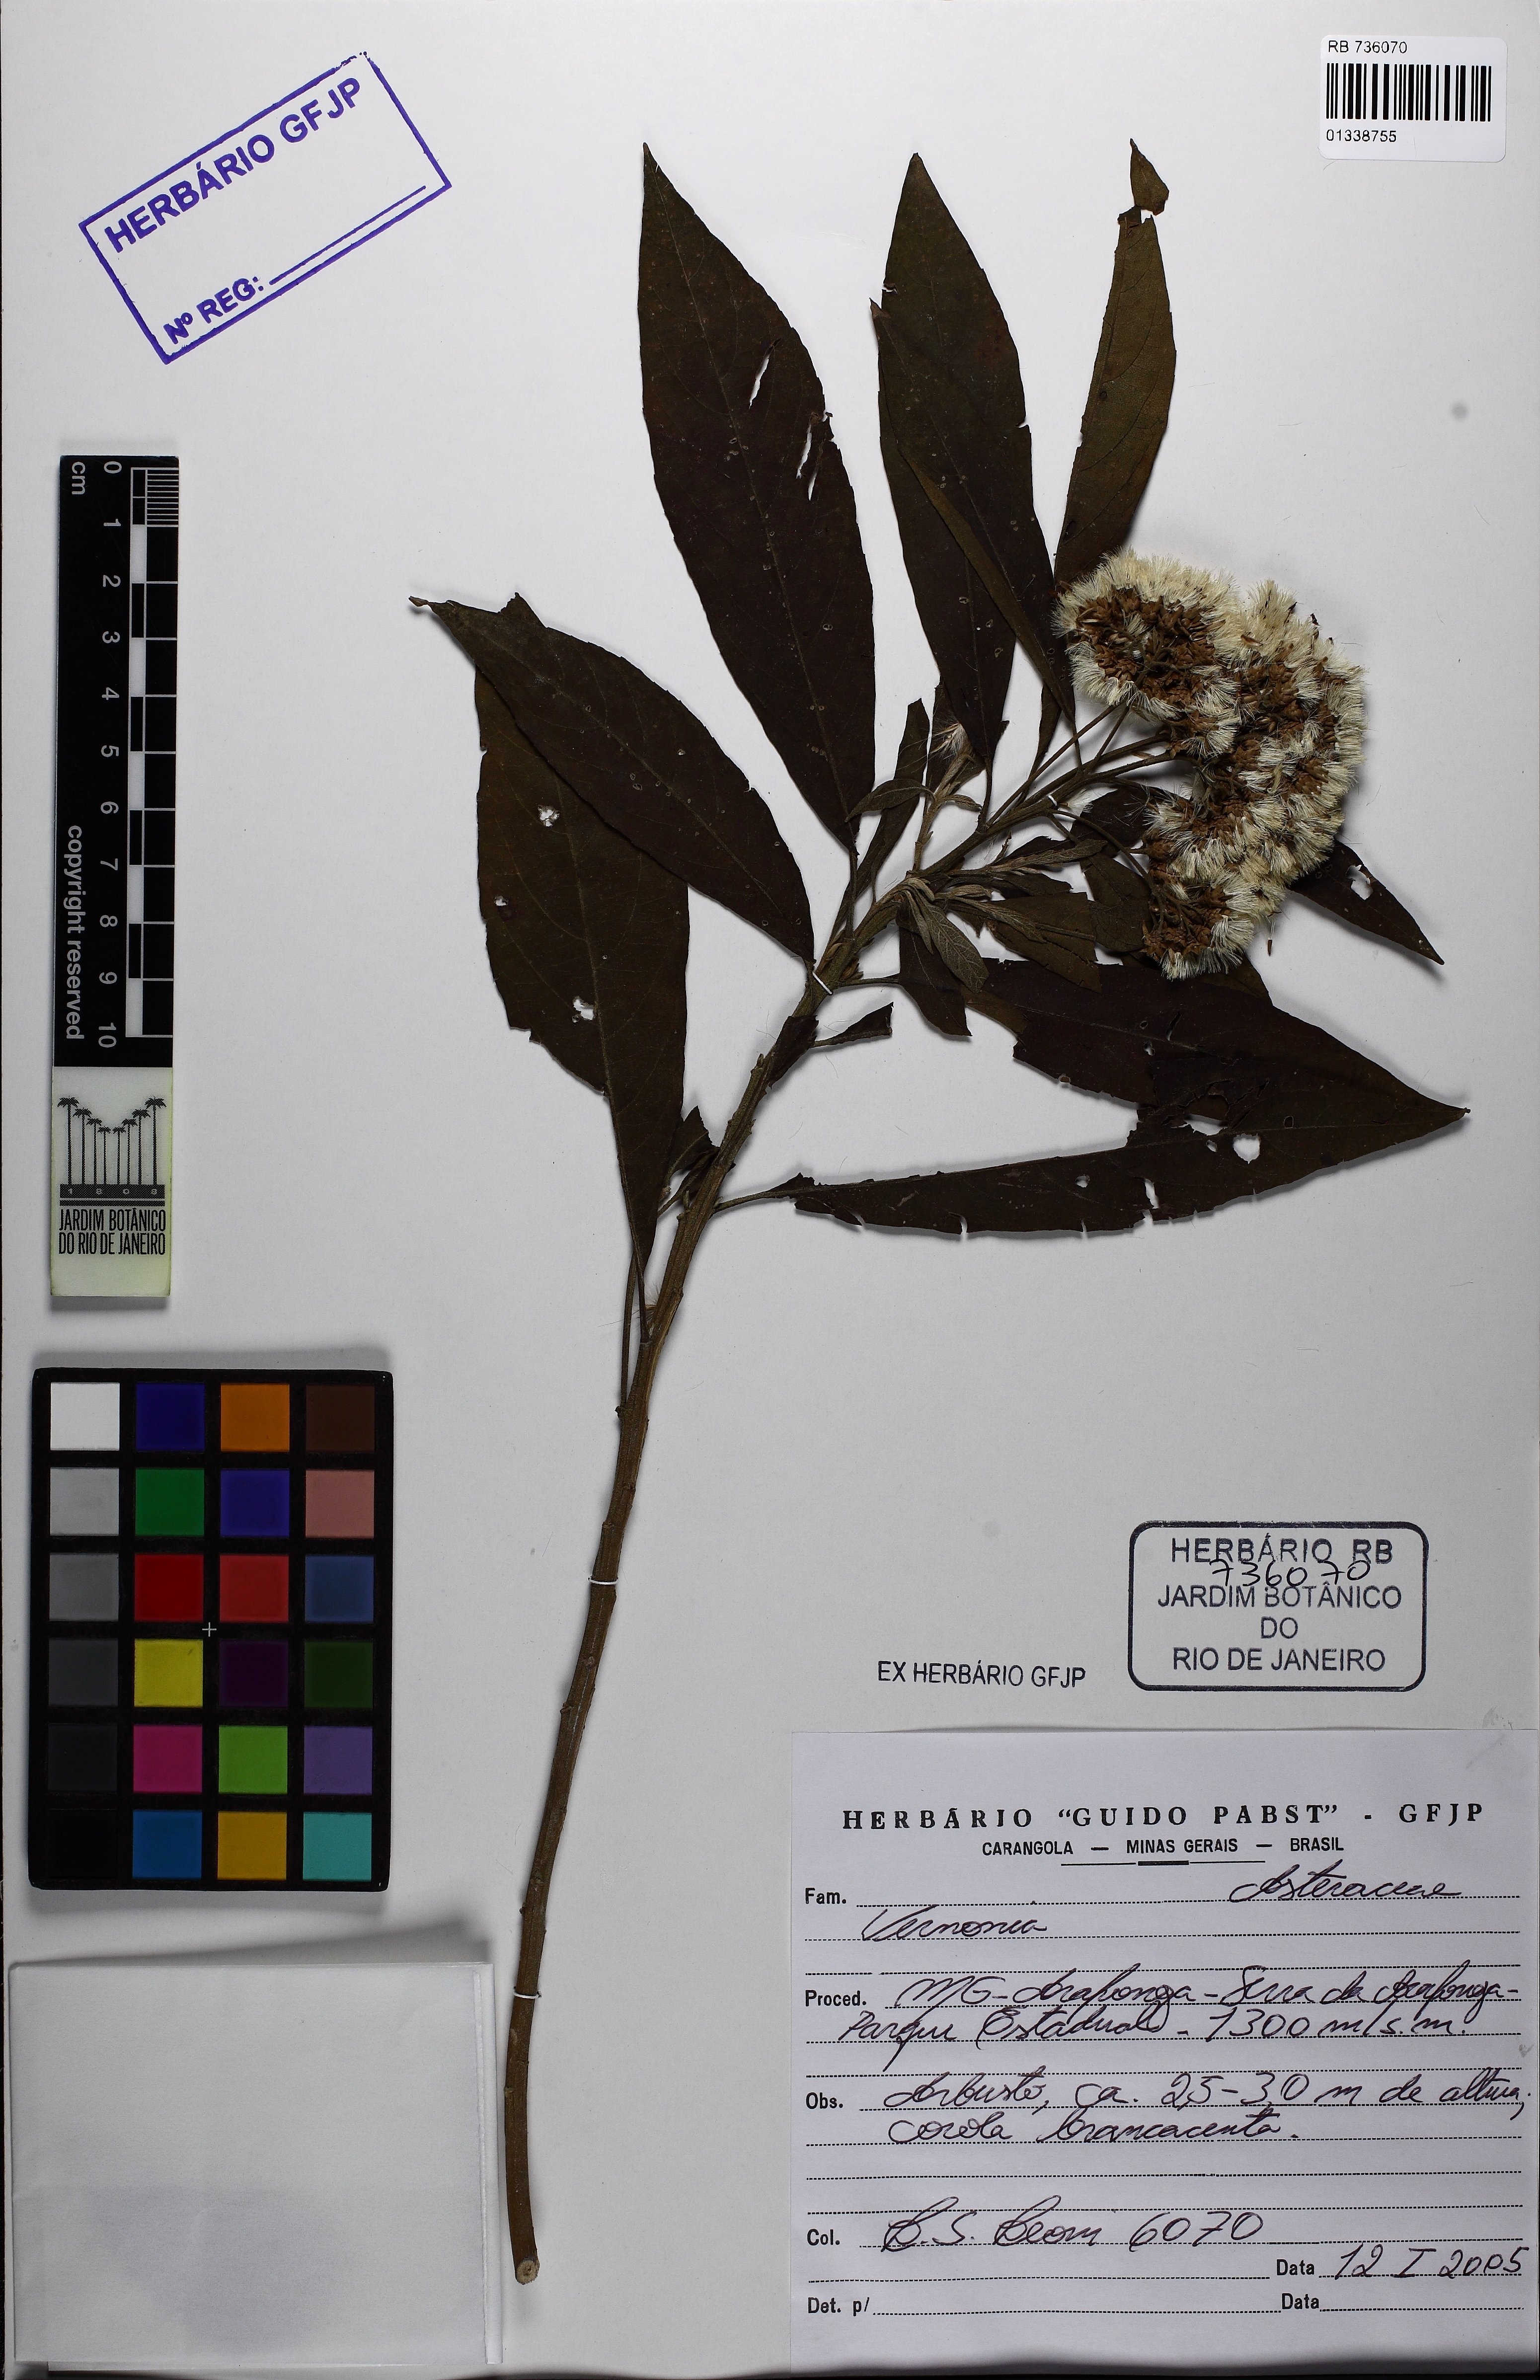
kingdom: Plantae
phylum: Tracheophyta
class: Magnoliopsida
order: Asterales
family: Asteraceae
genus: Vernonia
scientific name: Vernonia
